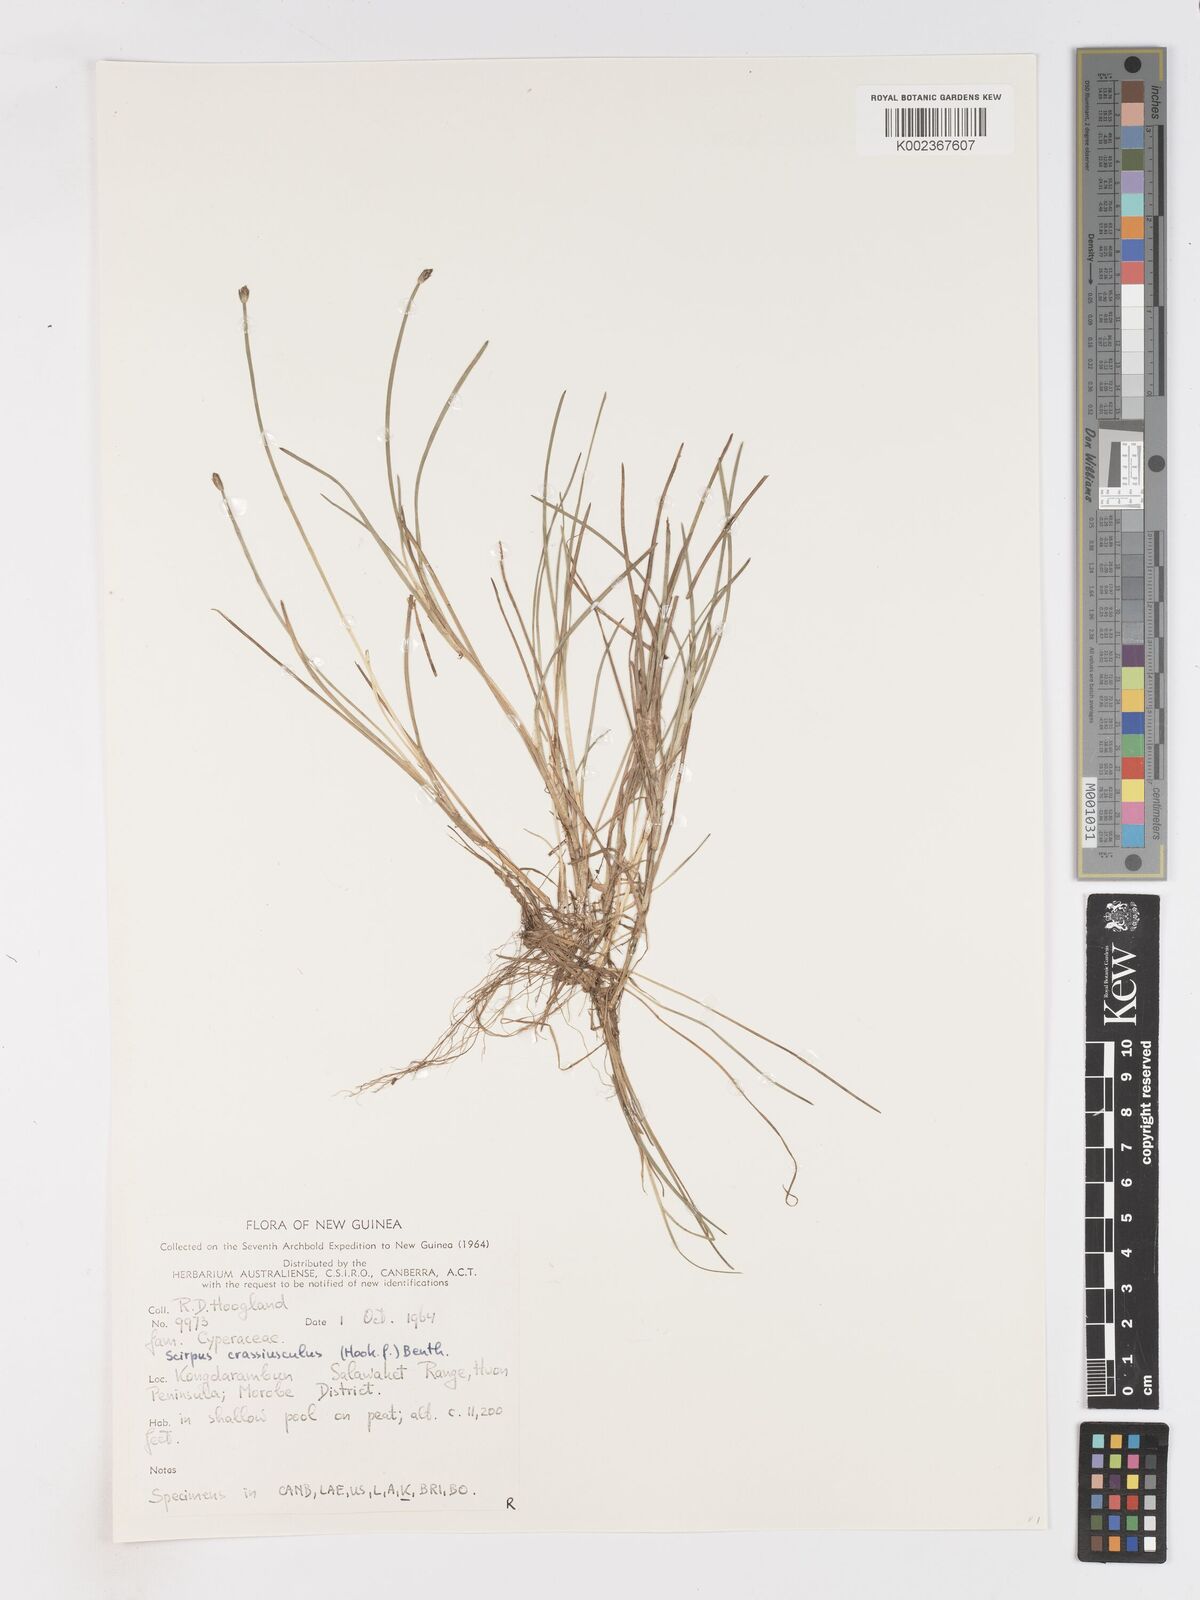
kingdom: Plantae
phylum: Tracheophyta
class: Liliopsida
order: Poales
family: Cyperaceae
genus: Isolepis
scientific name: Isolepis crassiuscula
